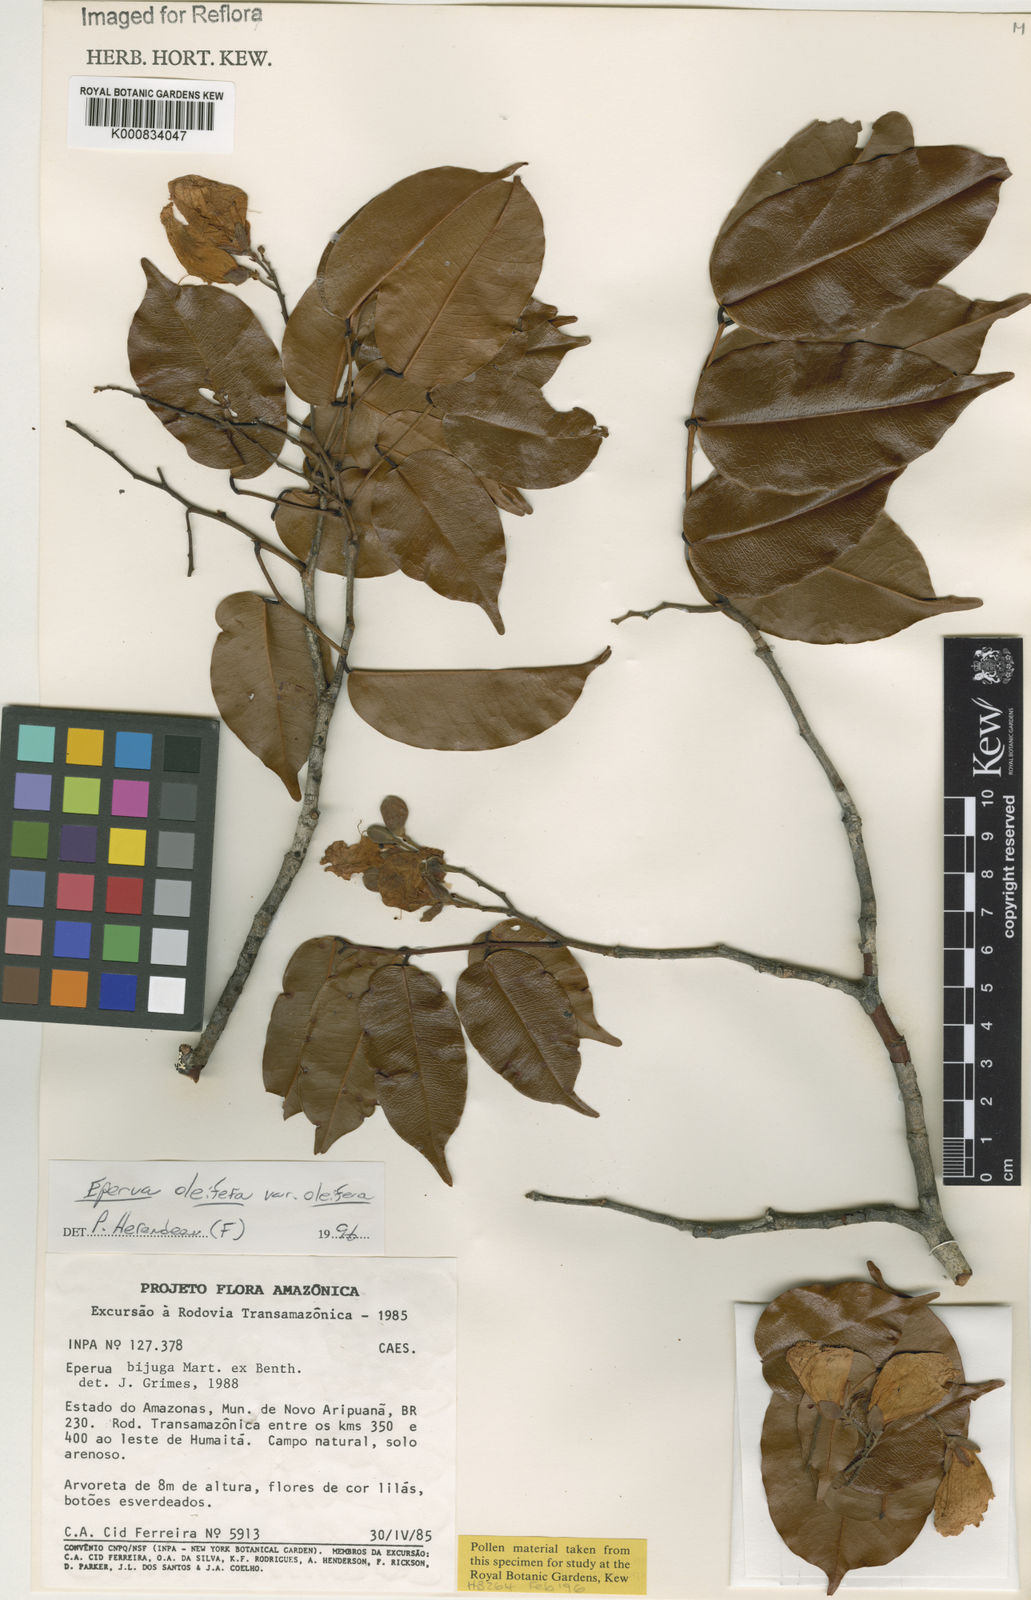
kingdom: Plantae
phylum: Tracheophyta
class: Magnoliopsida
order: Fabales
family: Fabaceae
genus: Eperua
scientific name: Eperua oleifera
